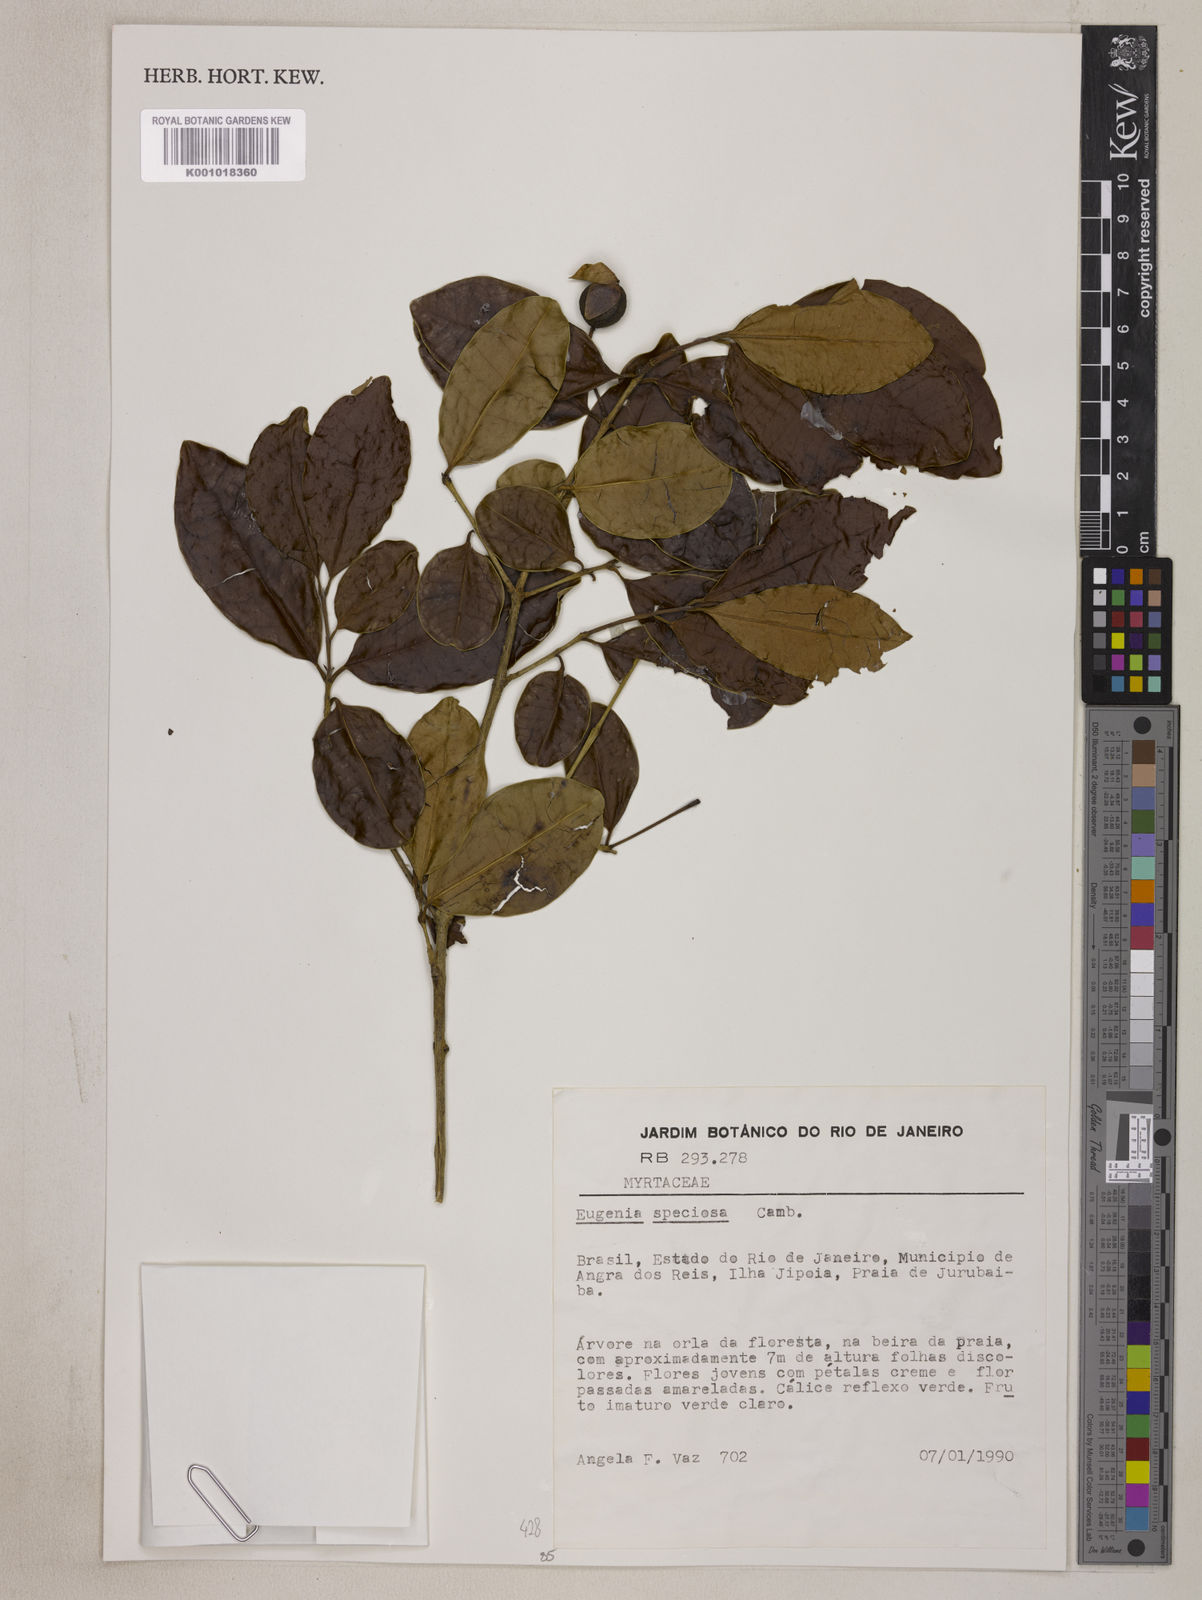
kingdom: Plantae
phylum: Tracheophyta
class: Magnoliopsida
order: Myrtales
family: Myrtaceae
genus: Eugenia
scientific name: Eugenia speciosa
